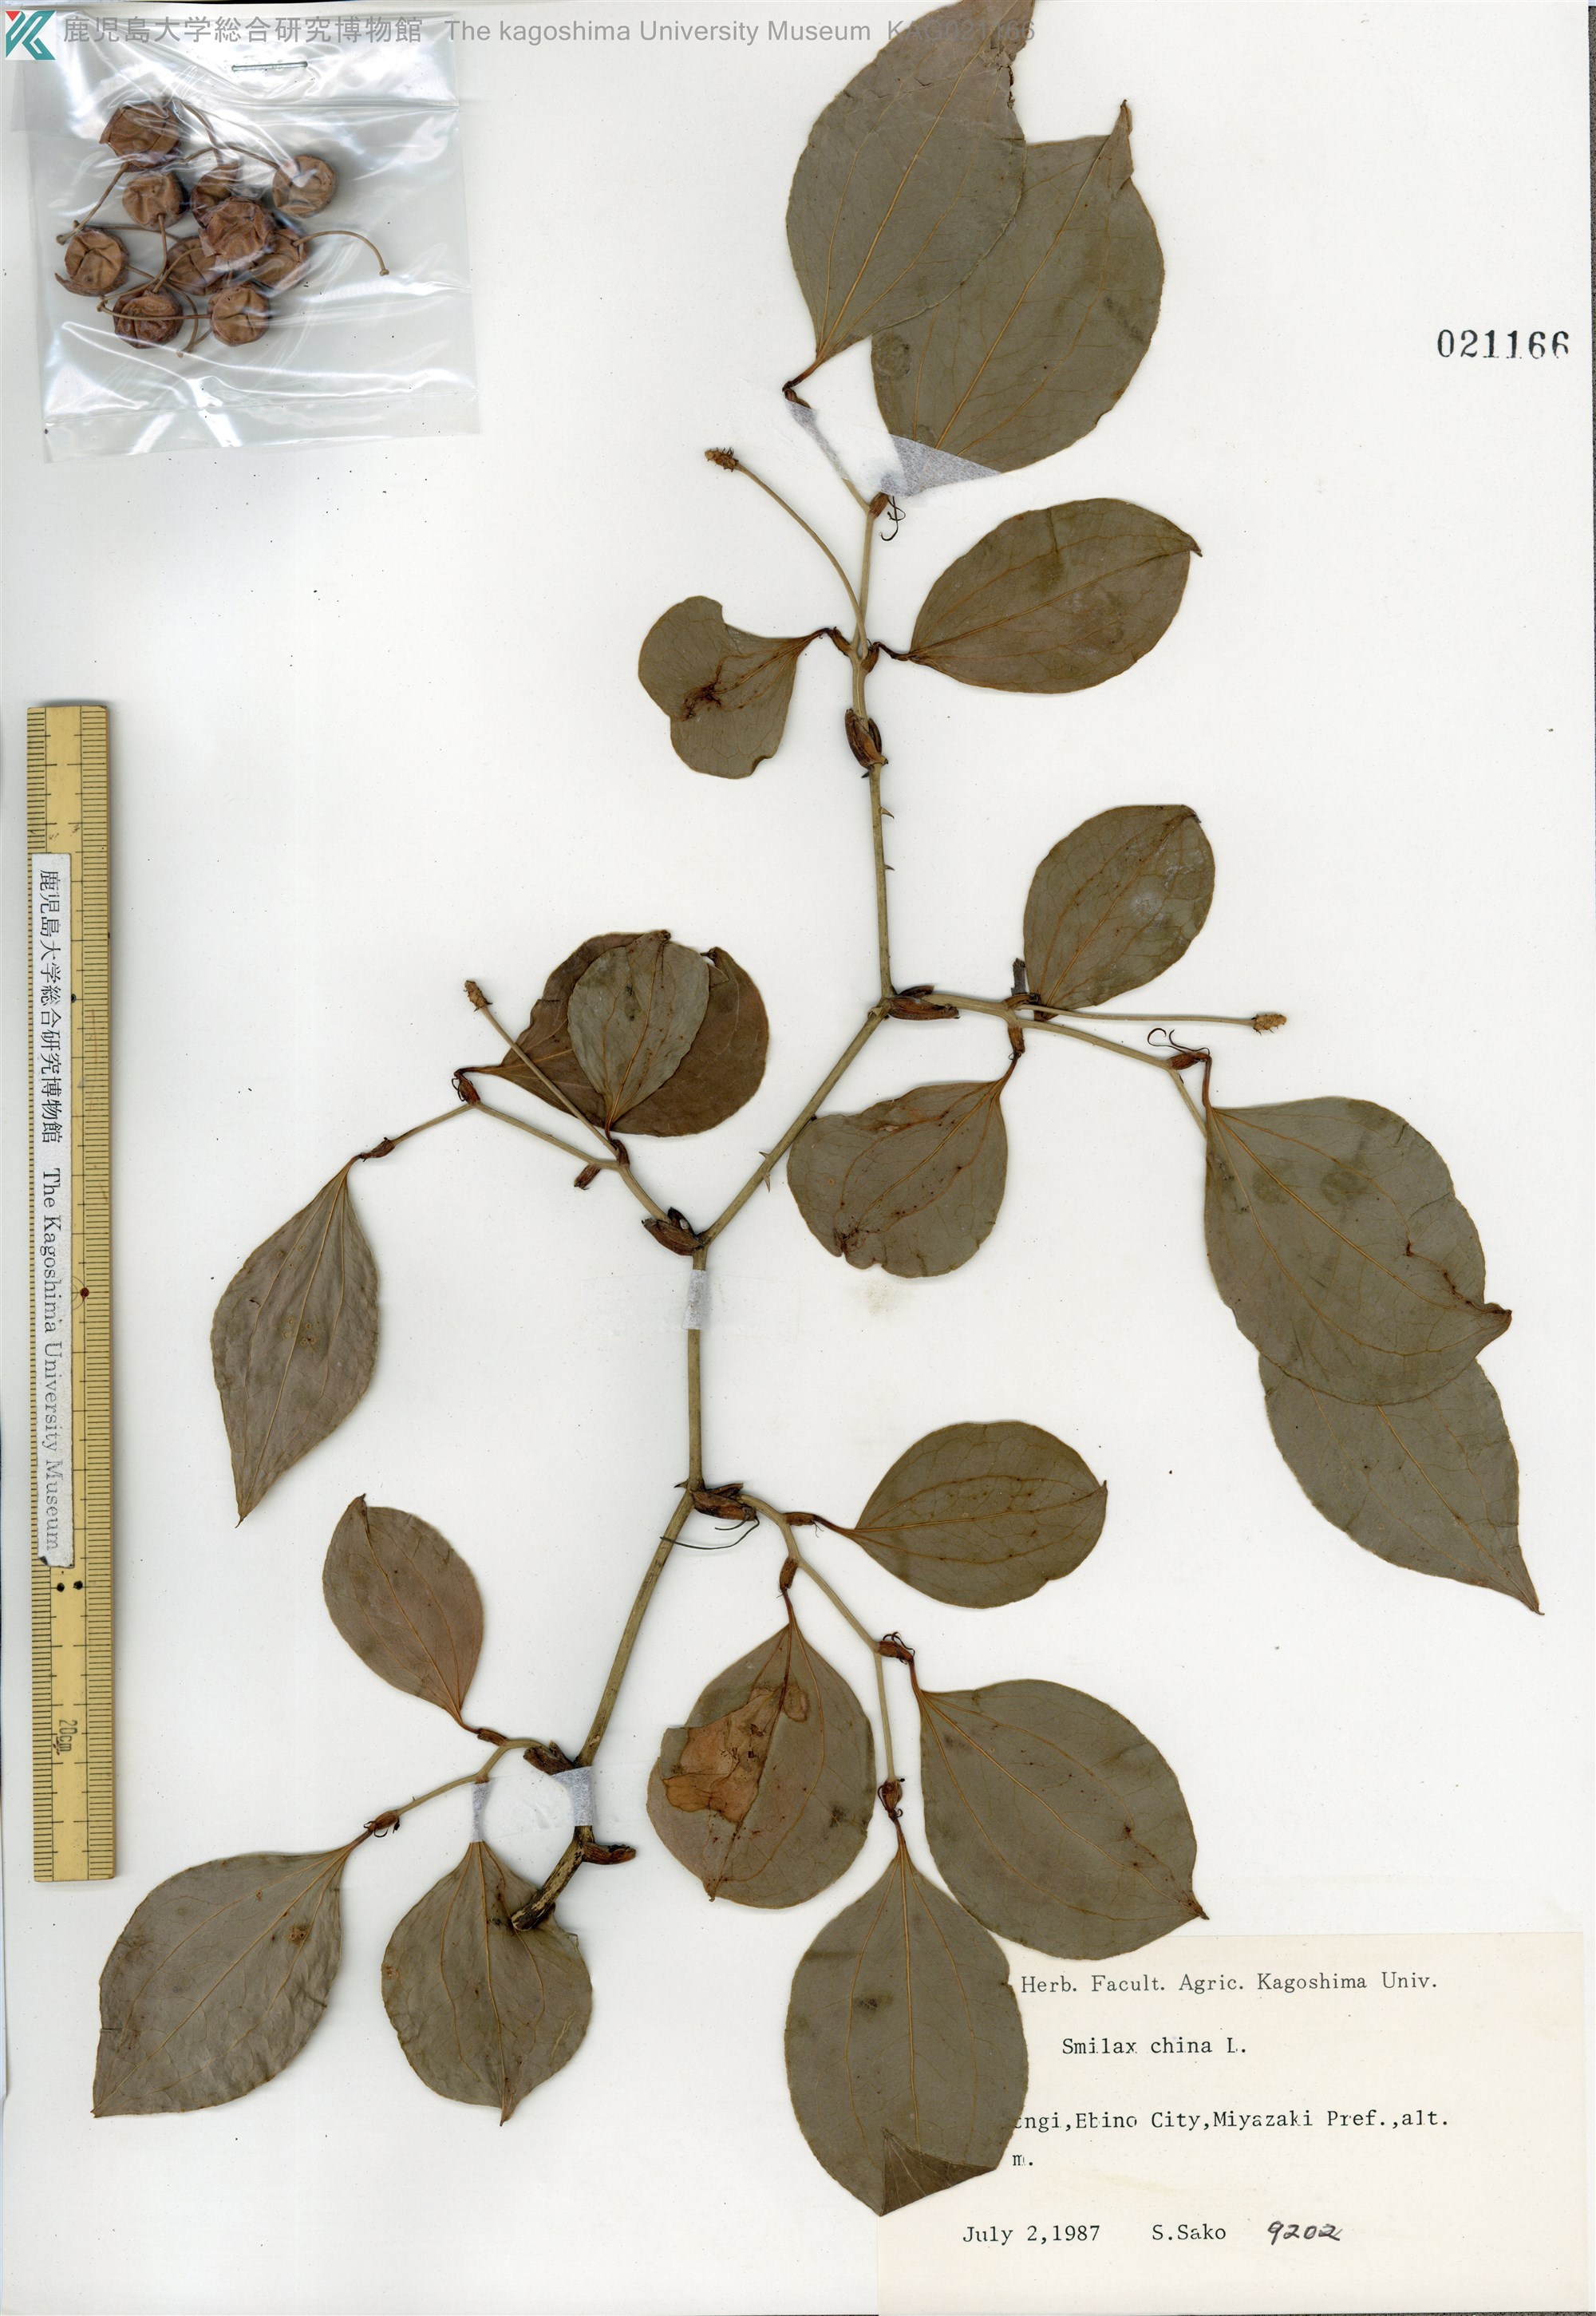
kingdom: Plantae
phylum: Tracheophyta
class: Liliopsida
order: Liliales
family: Smilacaceae
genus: Smilax
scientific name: Smilax china
